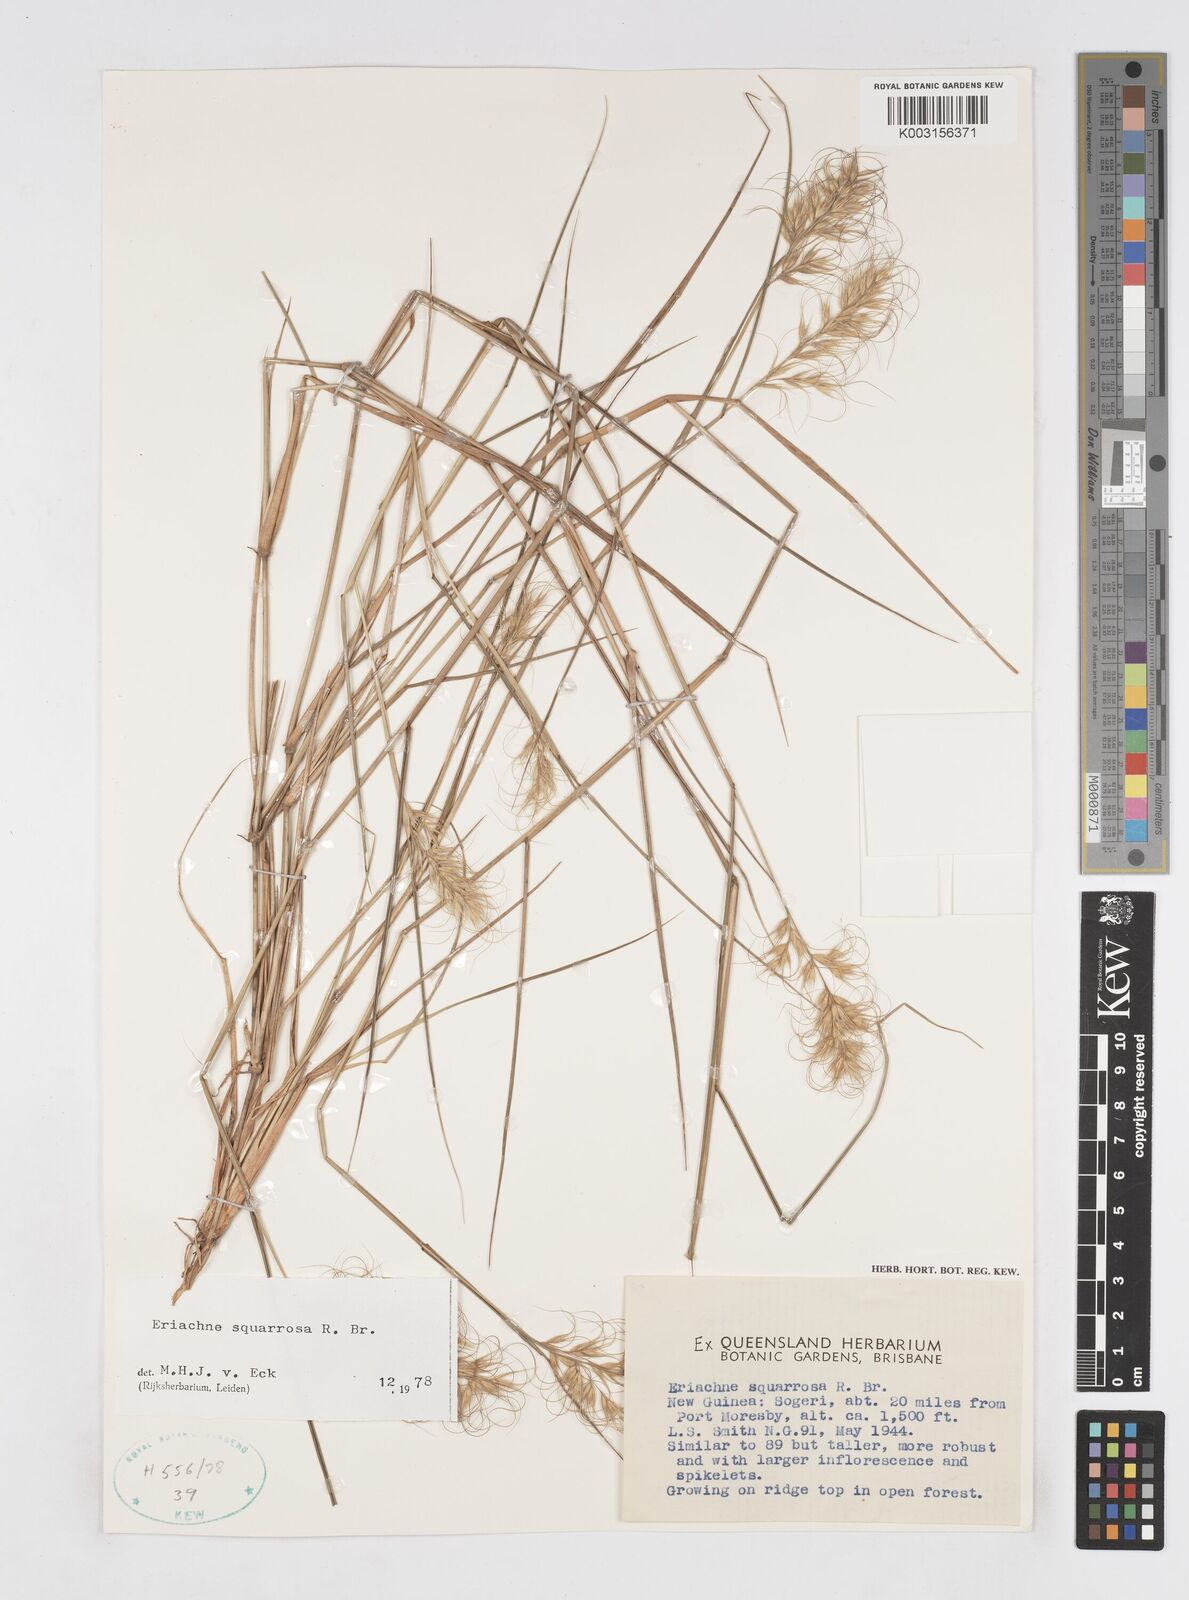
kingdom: Plantae
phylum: Tracheophyta
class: Liliopsida
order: Poales
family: Poaceae
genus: Eriachne
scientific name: Eriachne squarrosa
